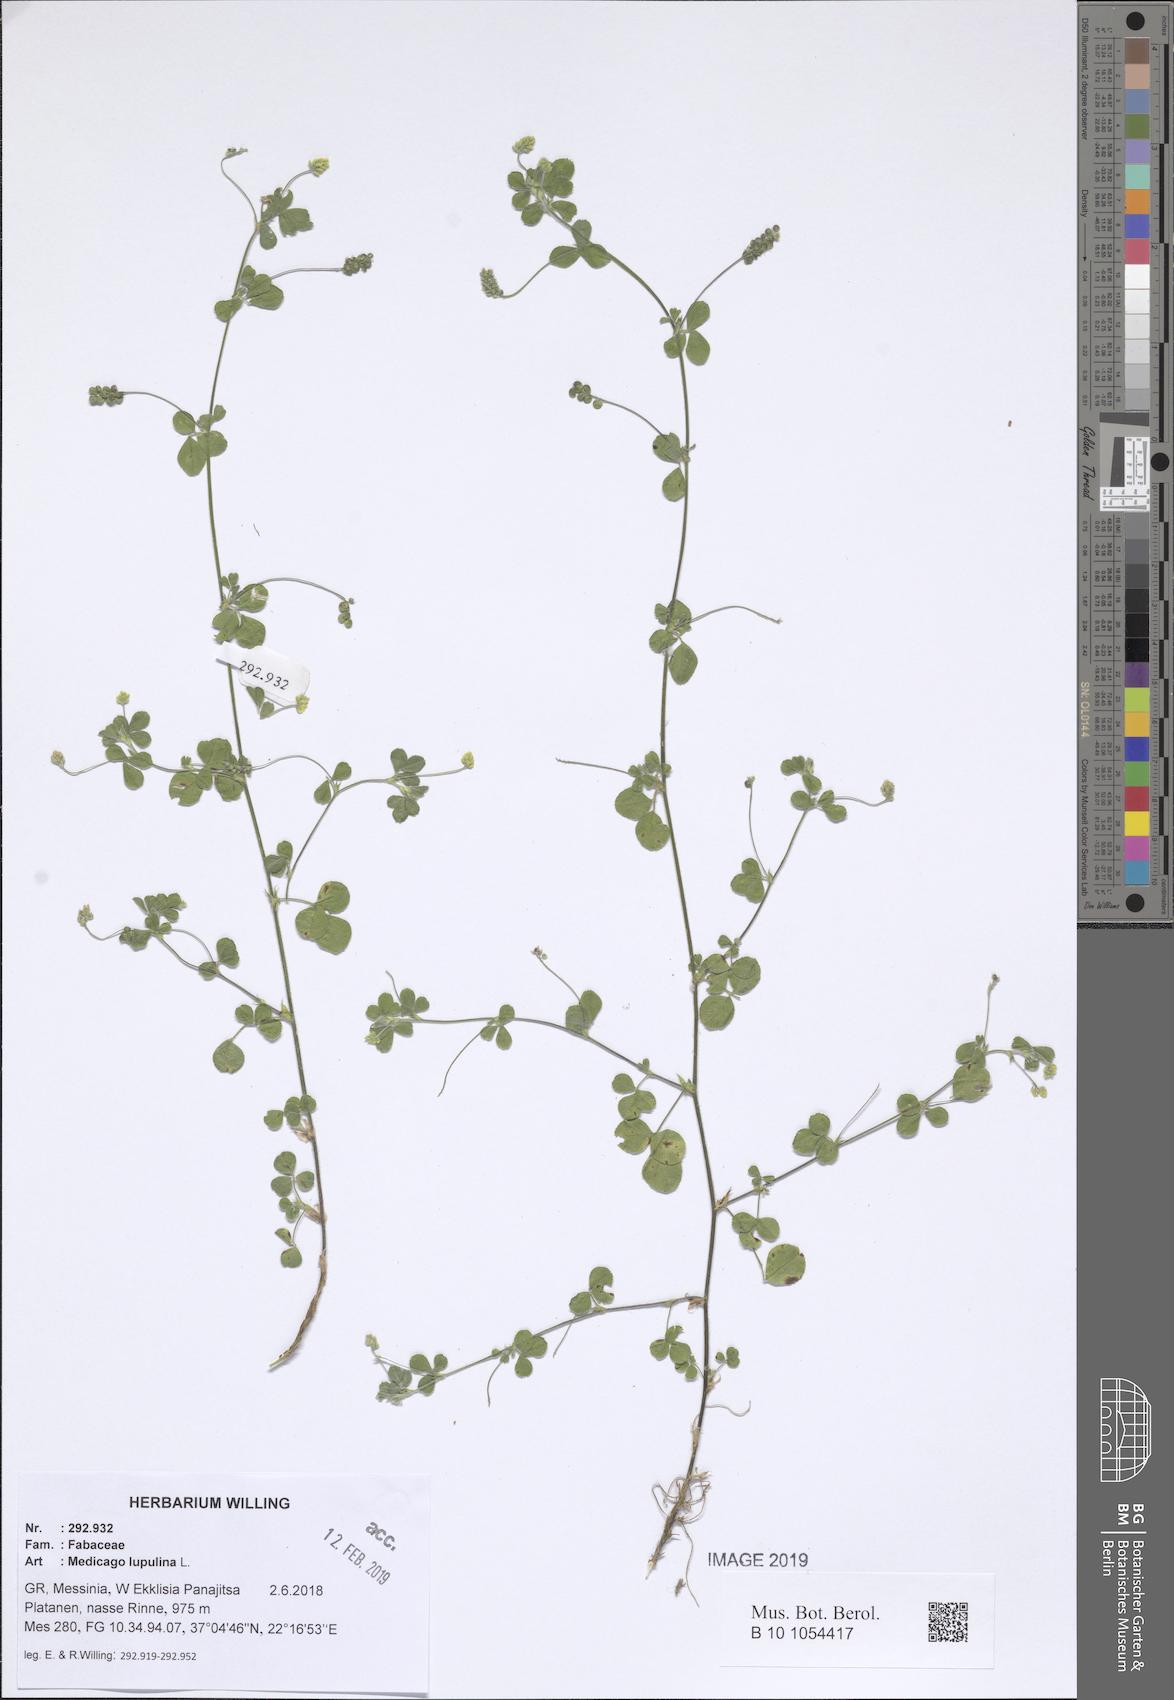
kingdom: Plantae
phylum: Tracheophyta
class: Magnoliopsida
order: Fabales
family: Fabaceae
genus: Medicago
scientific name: Medicago lupulina
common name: Black medick
